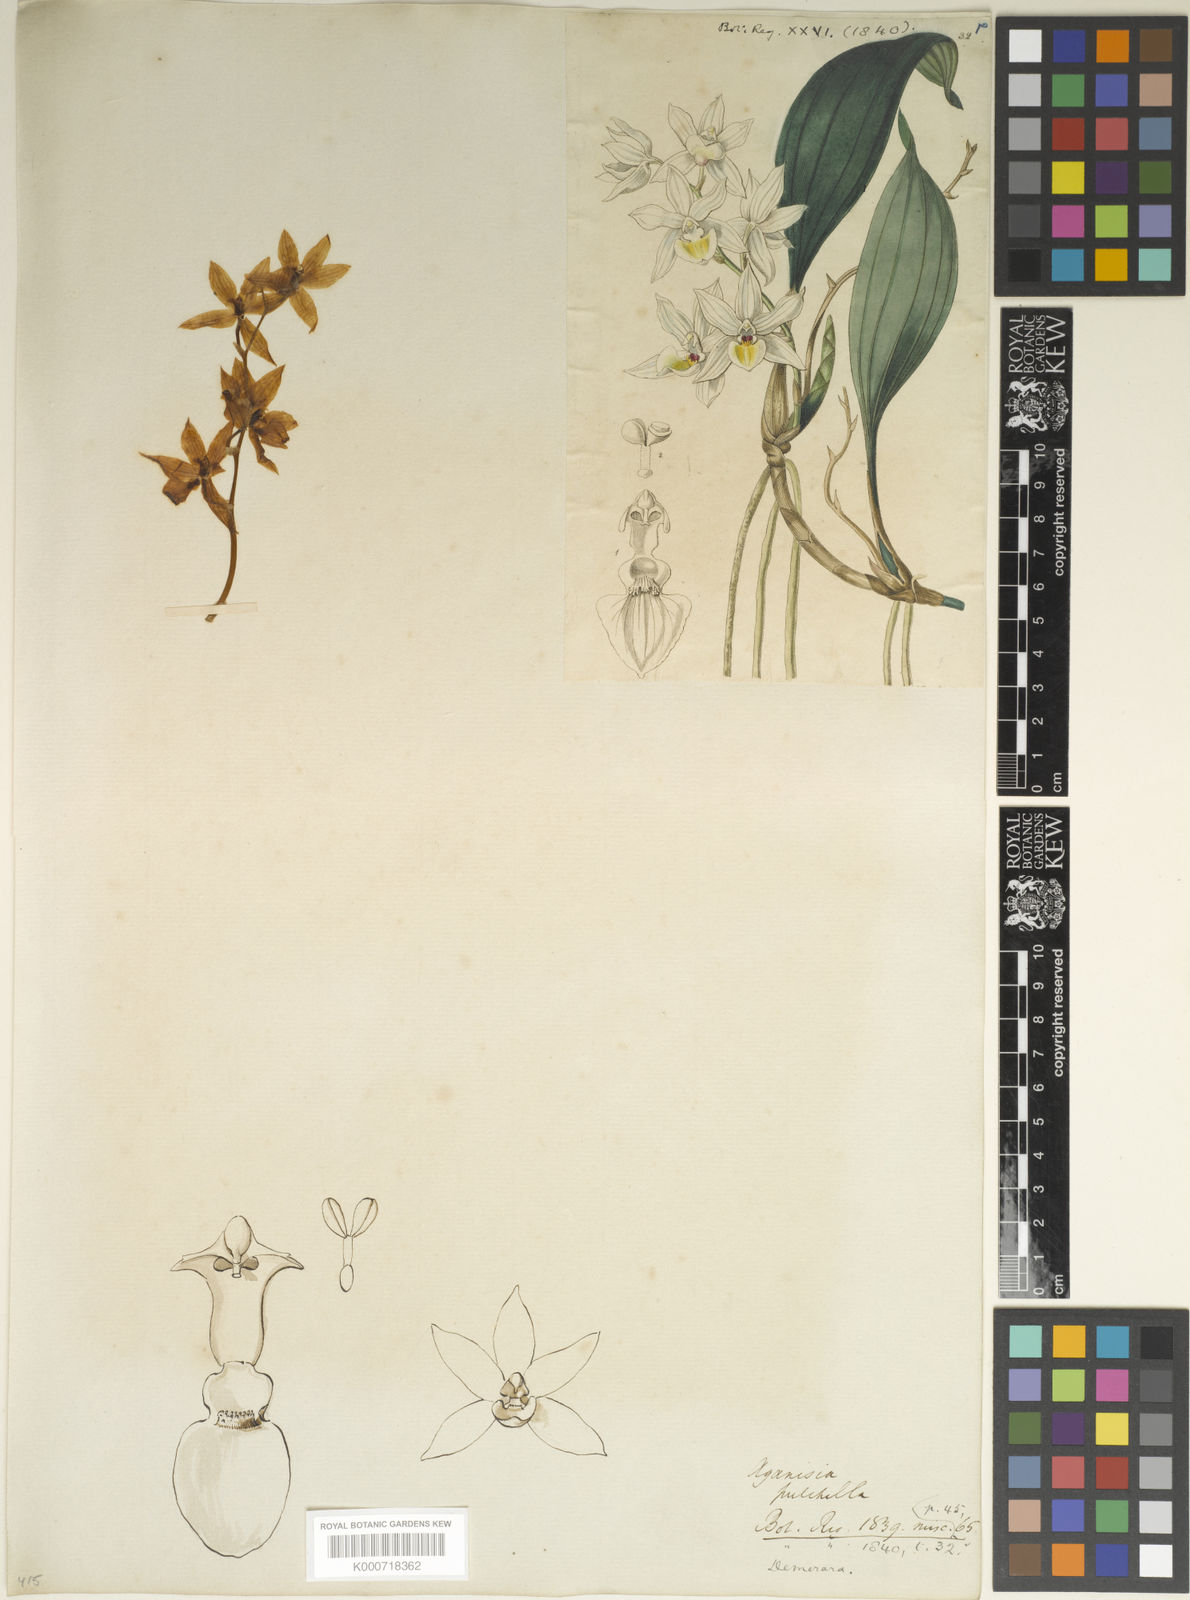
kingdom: Plantae
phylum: Tracheophyta
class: Liliopsida
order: Asparagales
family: Orchidaceae
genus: Aganisia
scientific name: Aganisia pulchella
